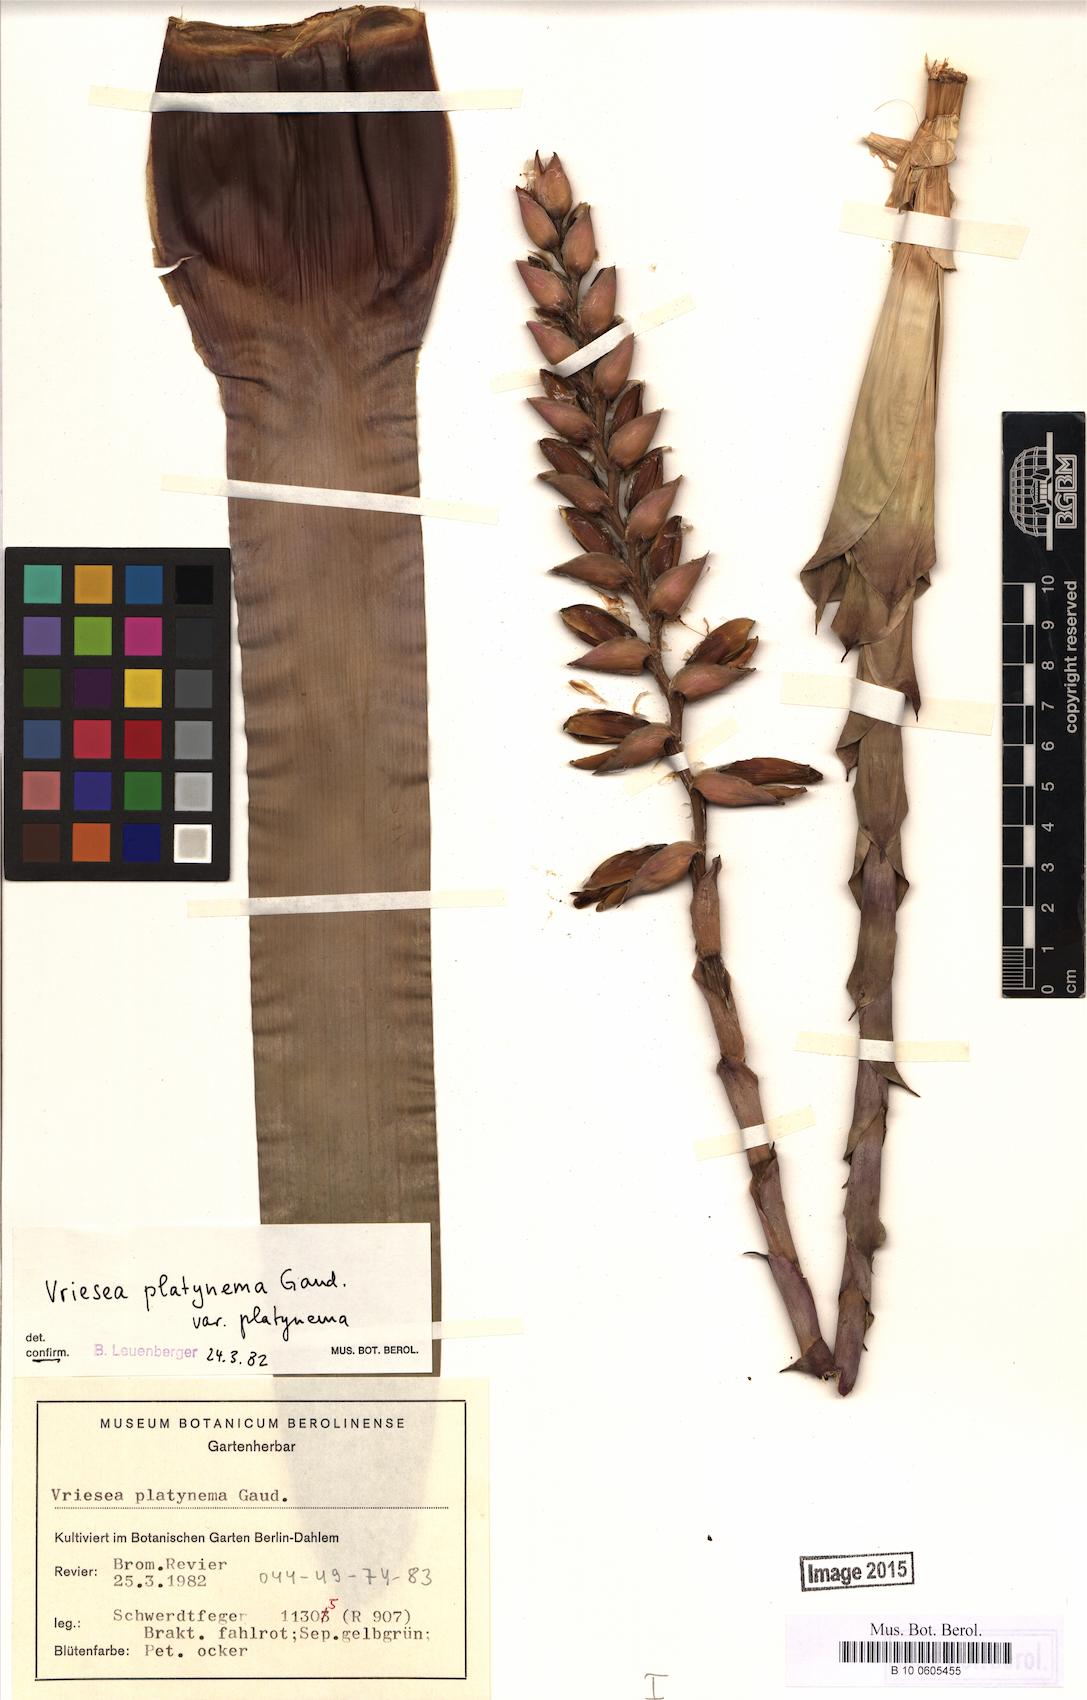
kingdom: Plantae
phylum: Tracheophyta
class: Liliopsida
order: Poales
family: Bromeliaceae
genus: Vriesea
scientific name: Vriesea platynema
